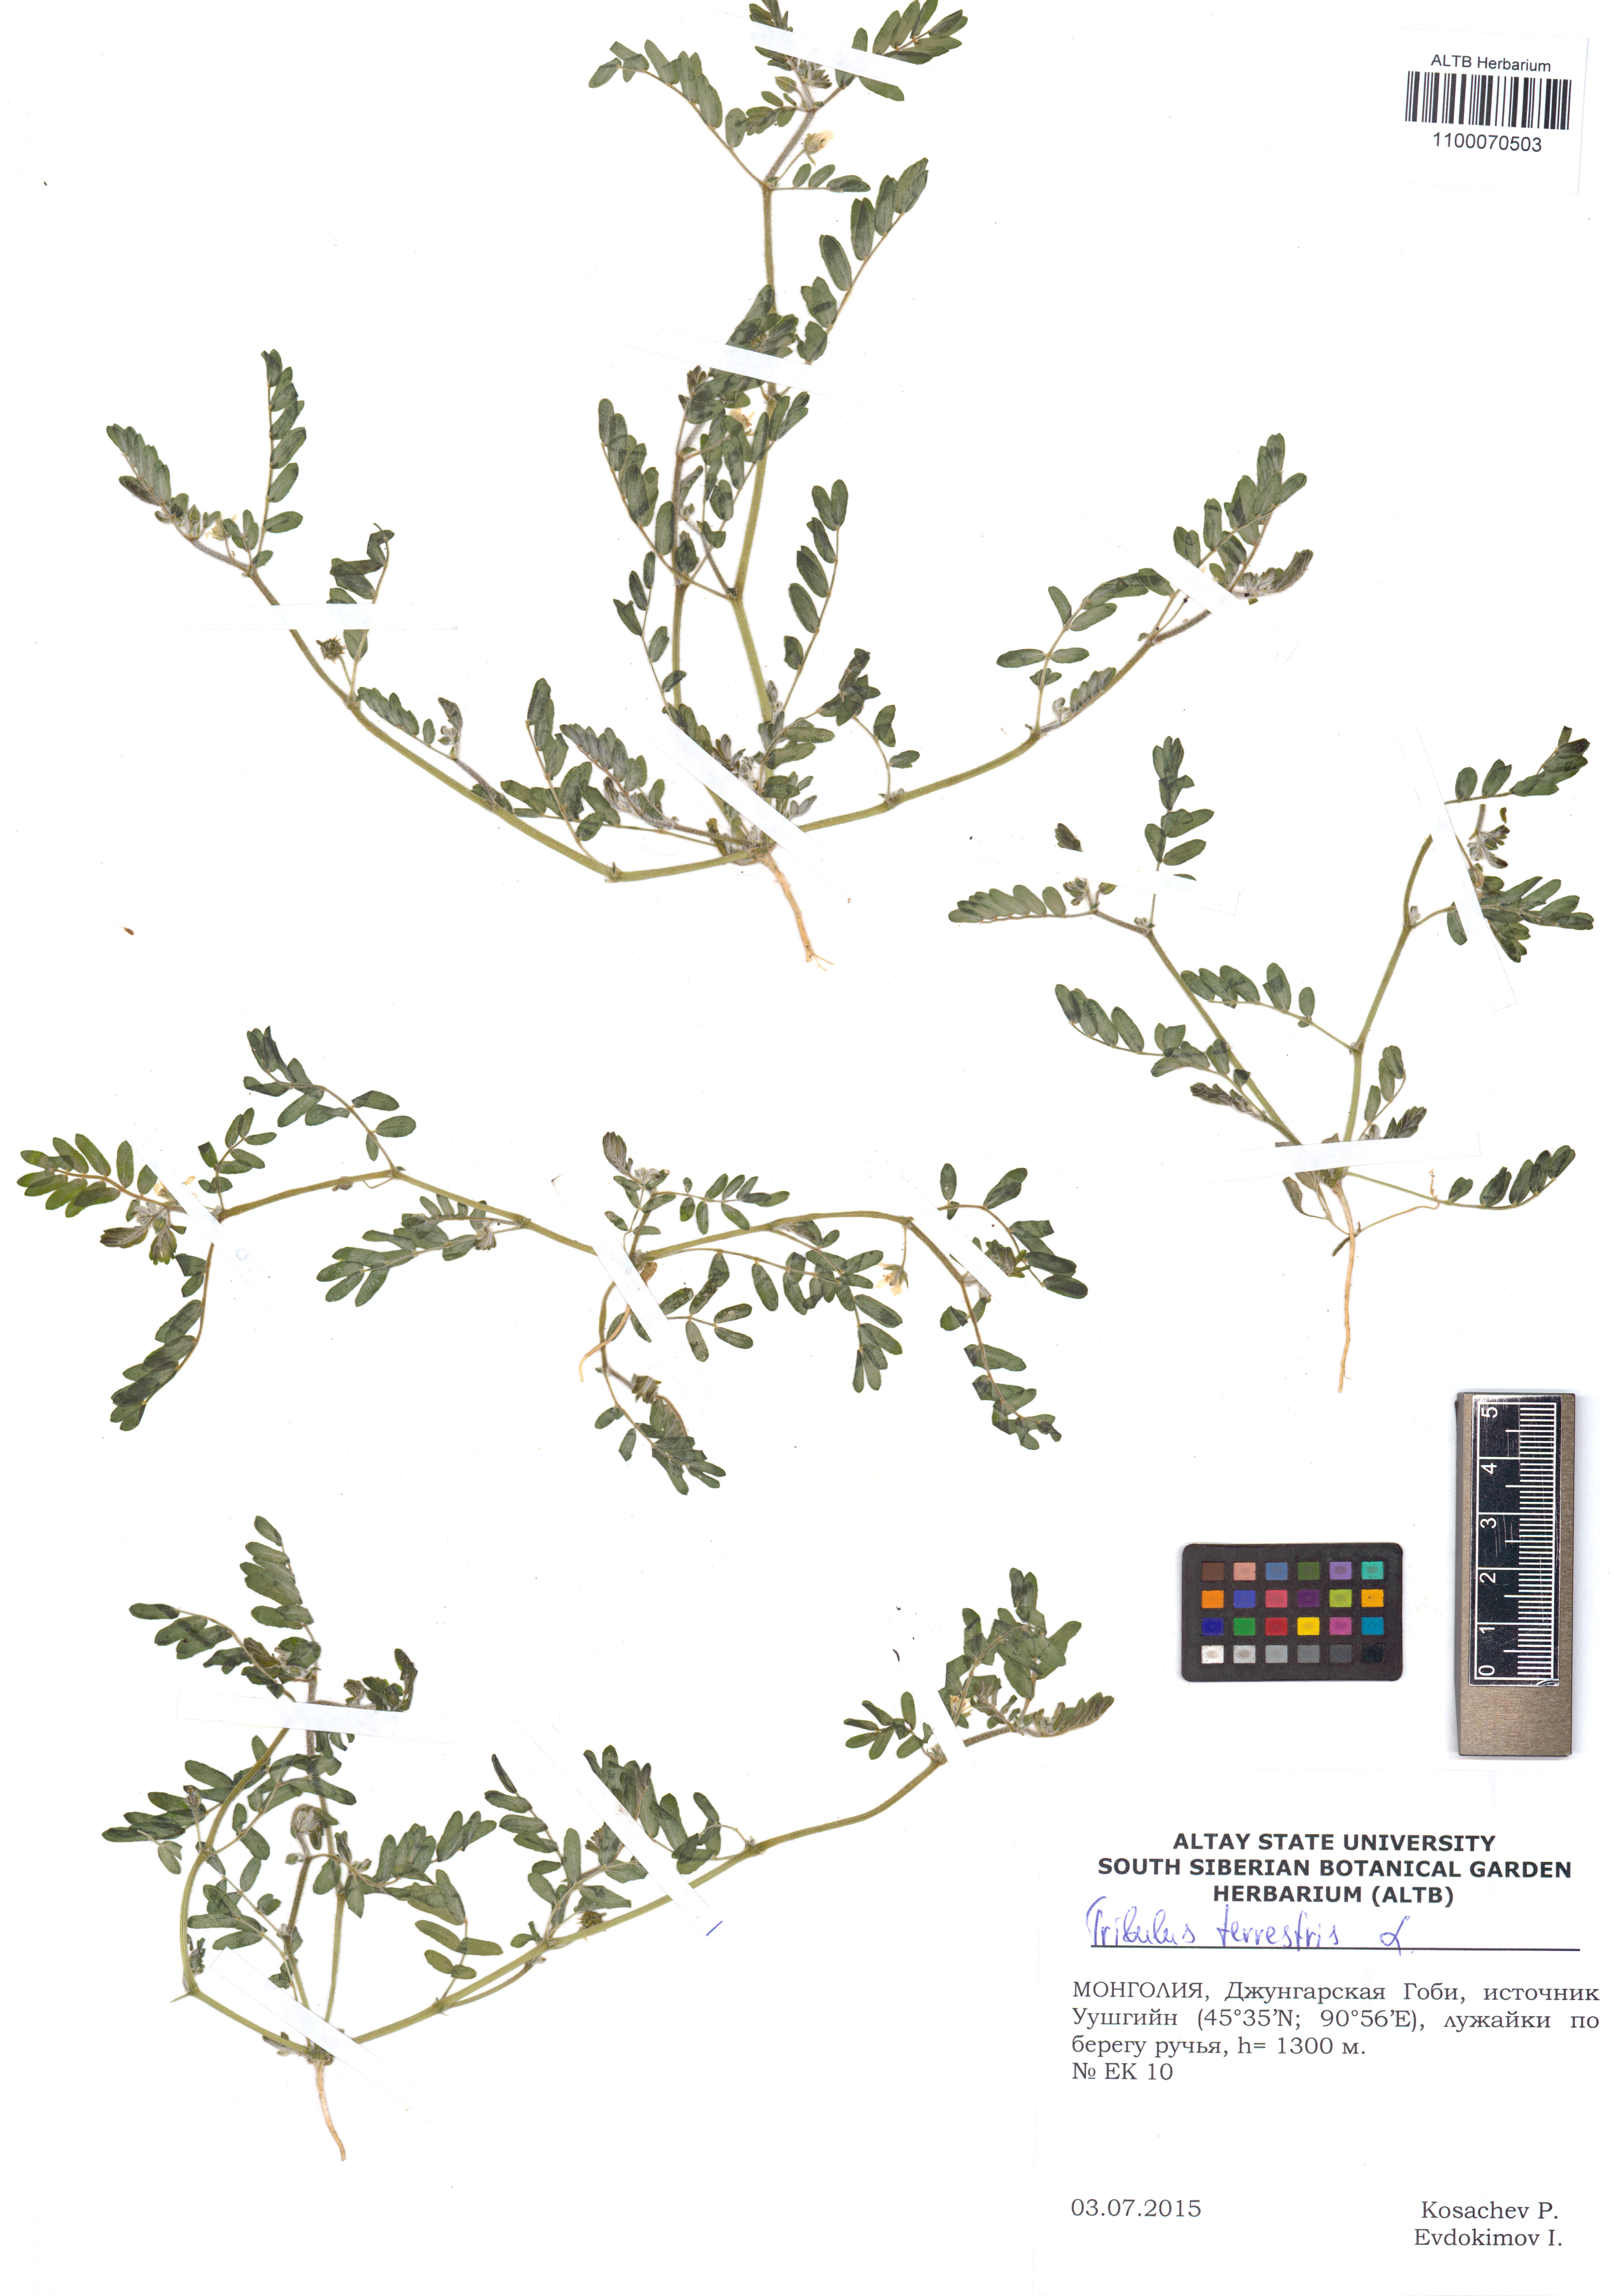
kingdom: Plantae
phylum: Tracheophyta
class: Magnoliopsida
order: Zygophyllales
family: Zygophyllaceae
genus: Tribulus
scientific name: Tribulus terrestris
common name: Puncturevine
